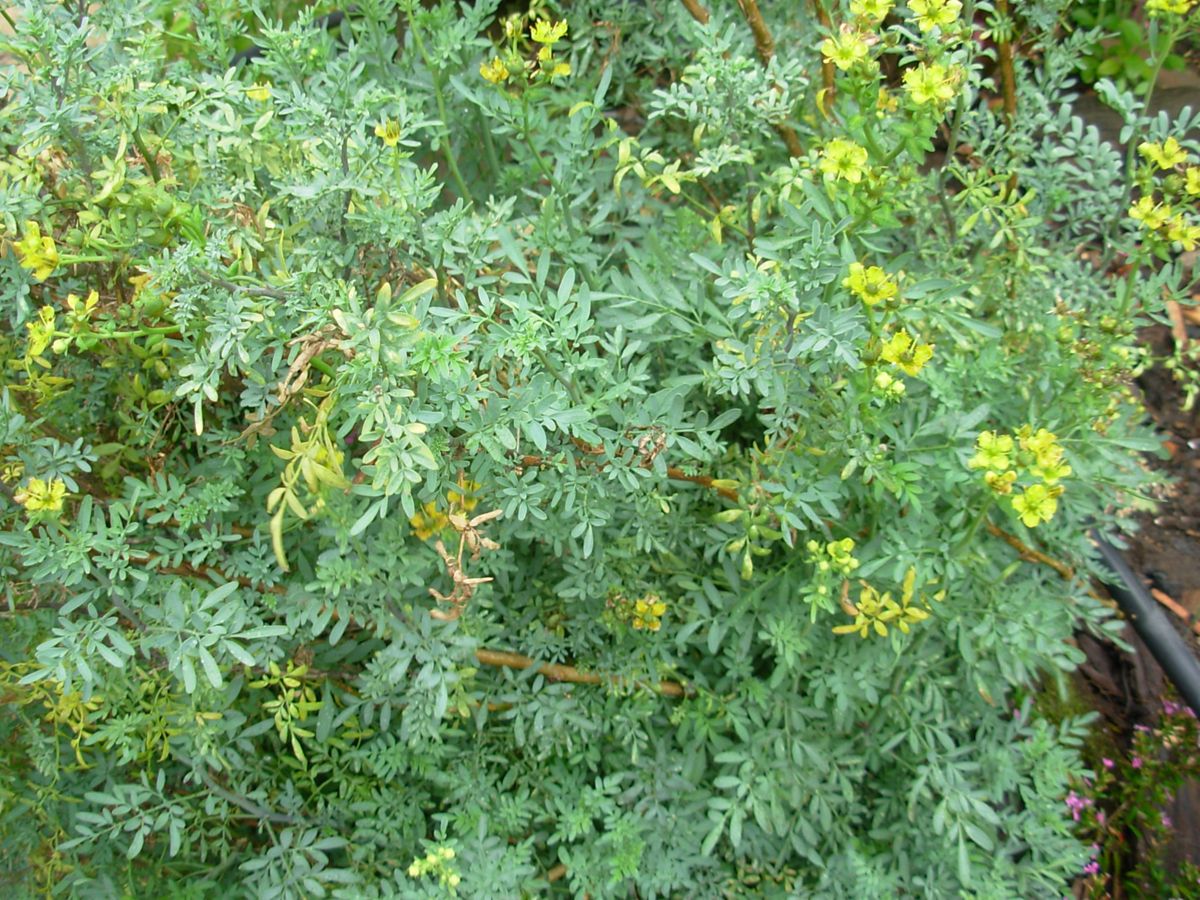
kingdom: Plantae
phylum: Tracheophyta
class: Magnoliopsida
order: Sapindales
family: Rutaceae
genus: Ruta
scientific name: Ruta chalepensis
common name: Fringed rue
